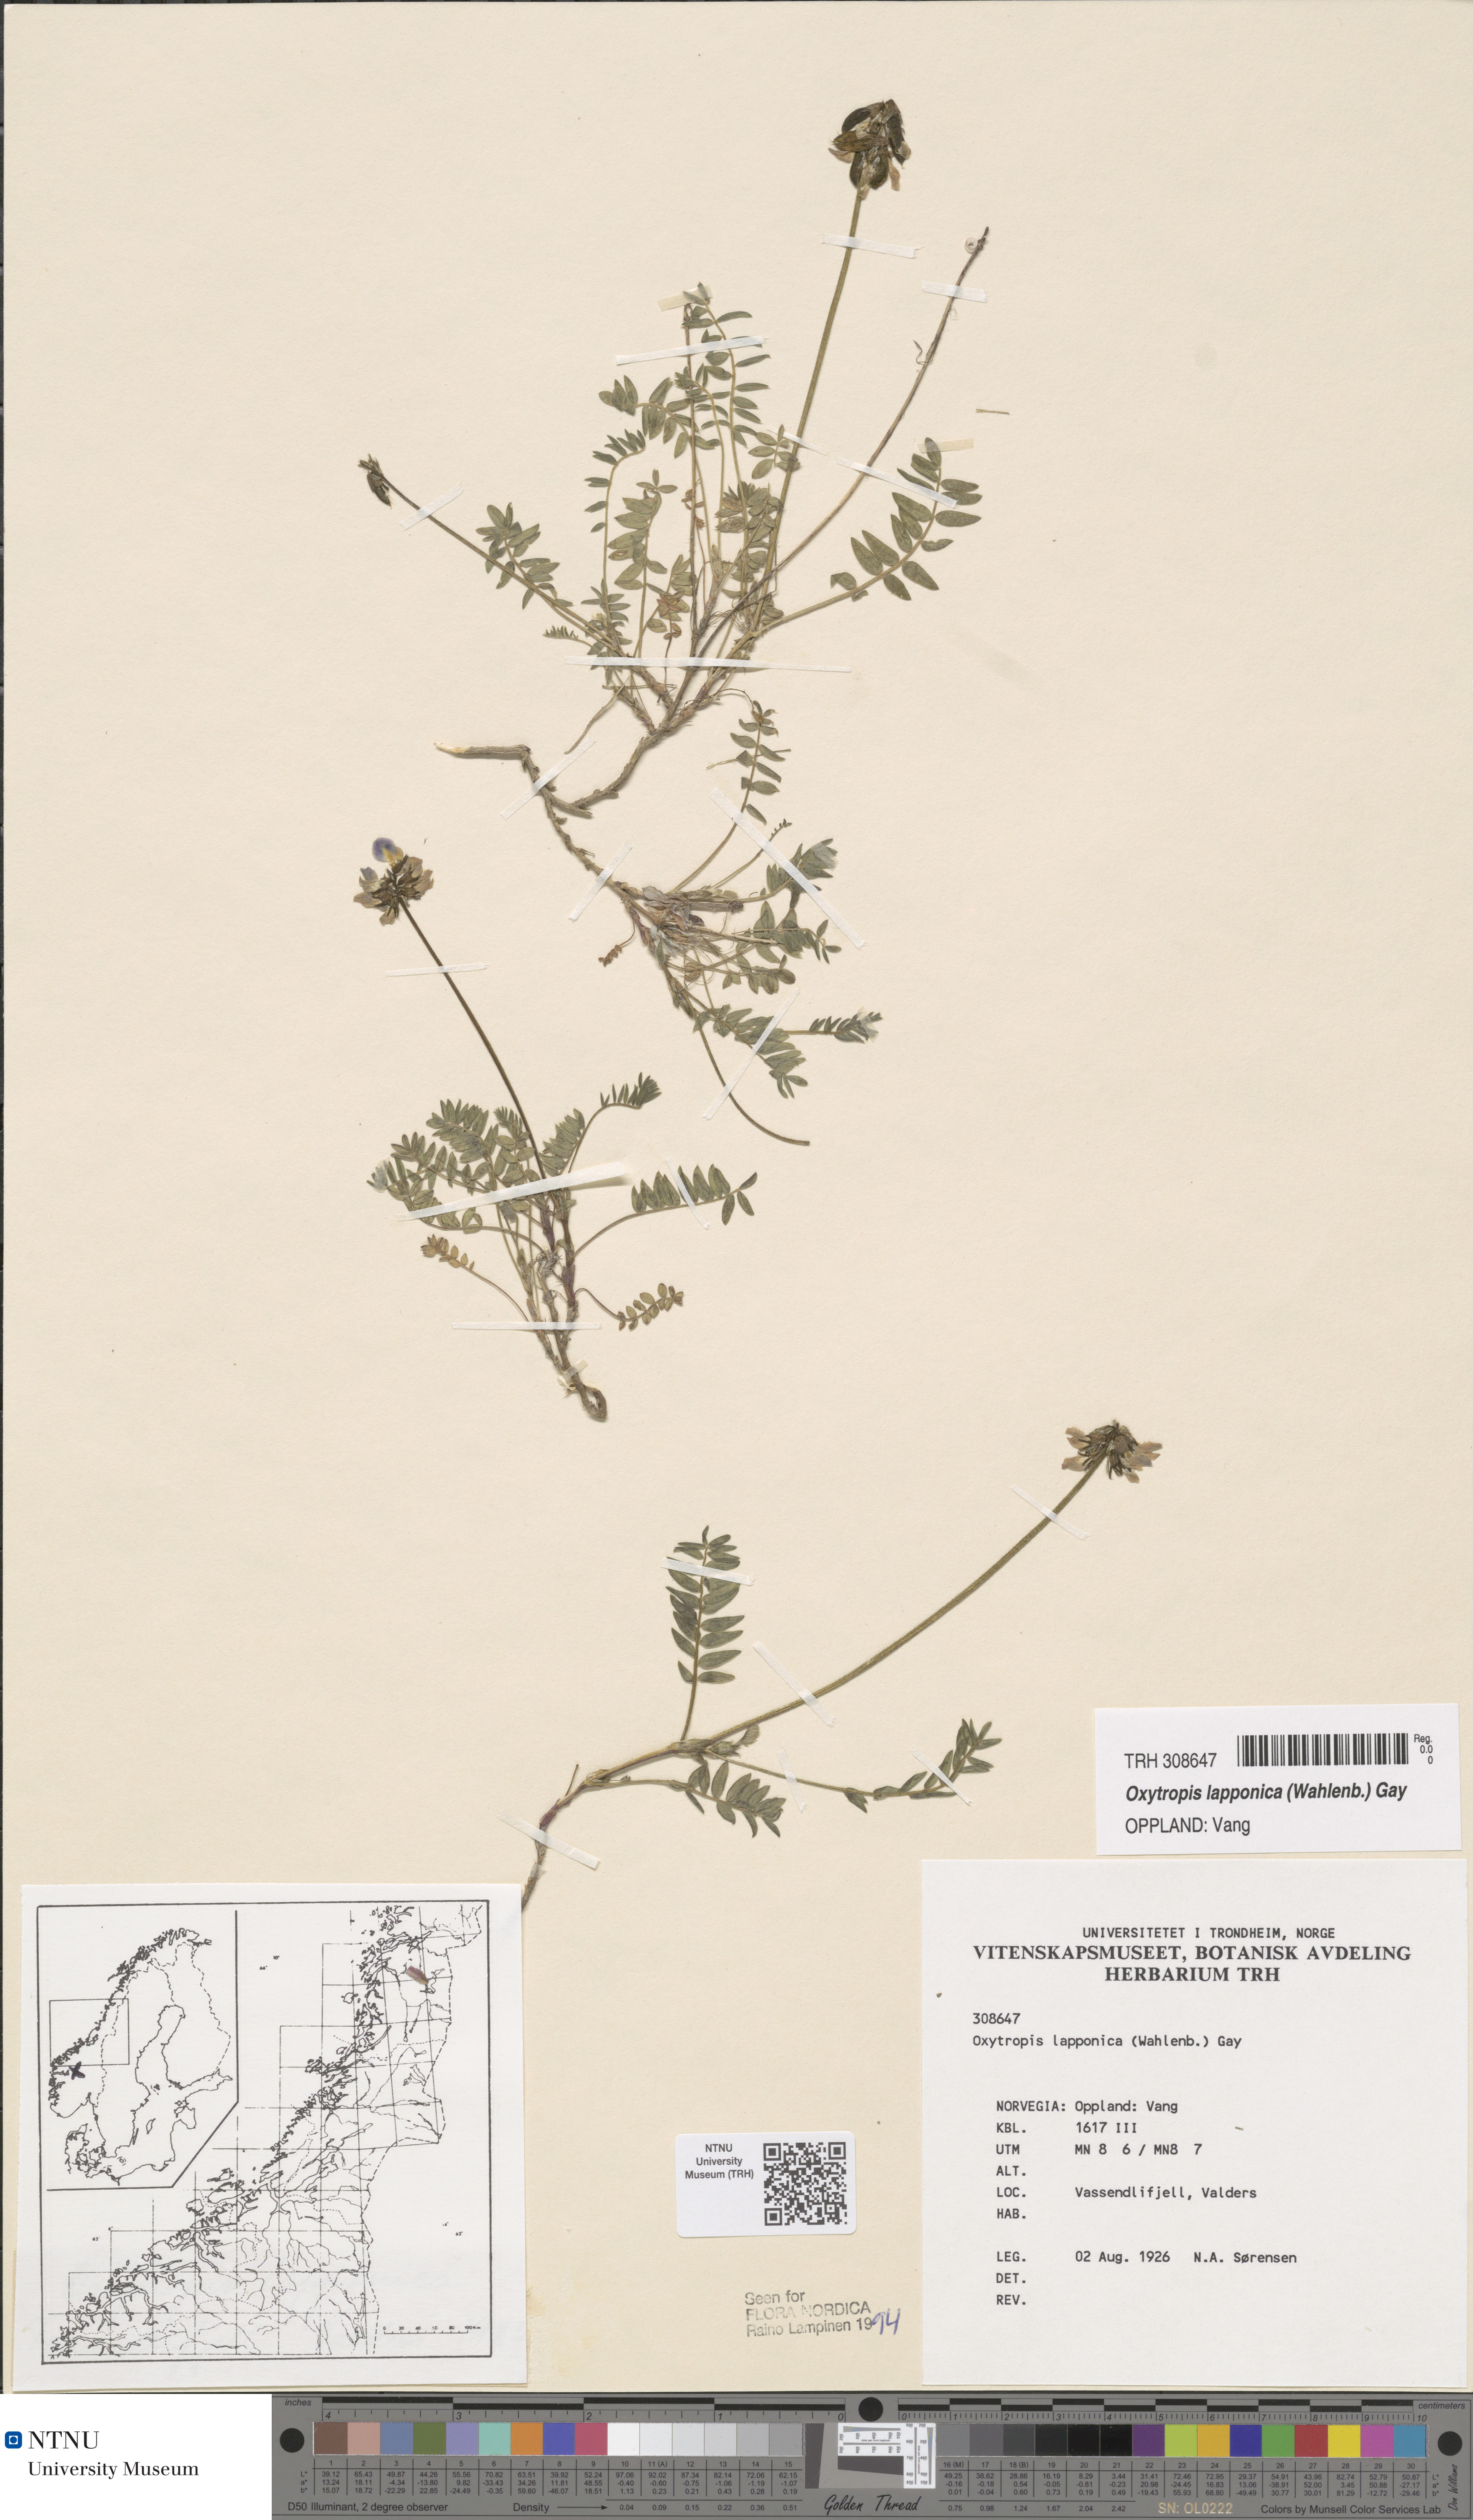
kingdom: Plantae
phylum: Tracheophyta
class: Magnoliopsida
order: Fabales
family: Fabaceae
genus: Oxytropis
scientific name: Oxytropis lapponica
